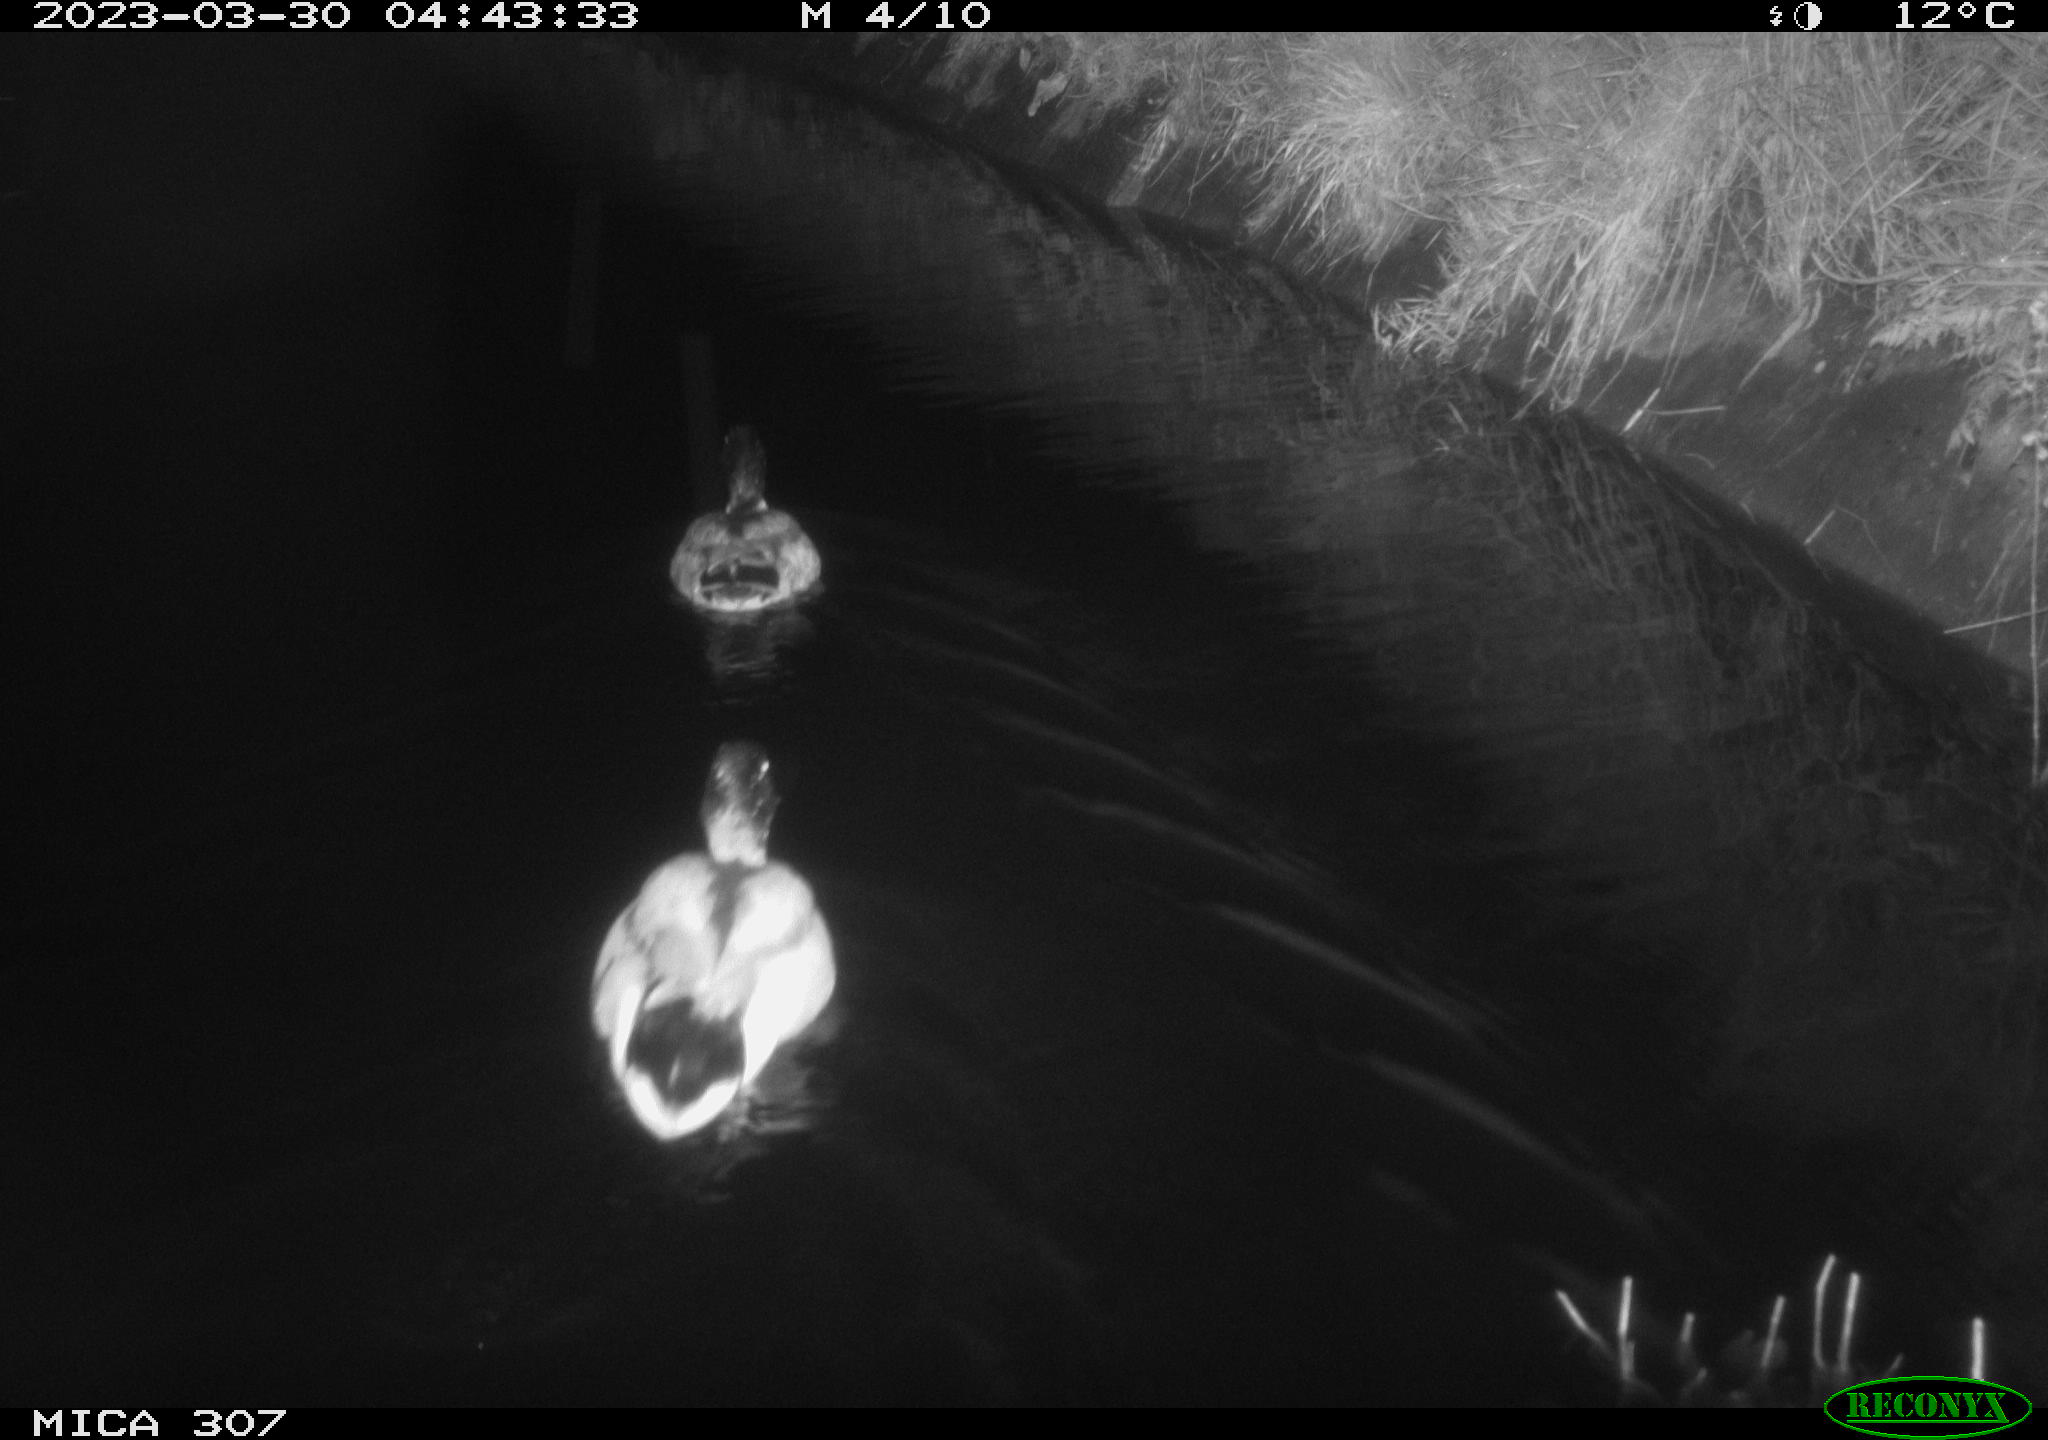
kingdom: Animalia
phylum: Chordata
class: Aves
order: Anseriformes
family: Anatidae
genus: Anas
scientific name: Anas
